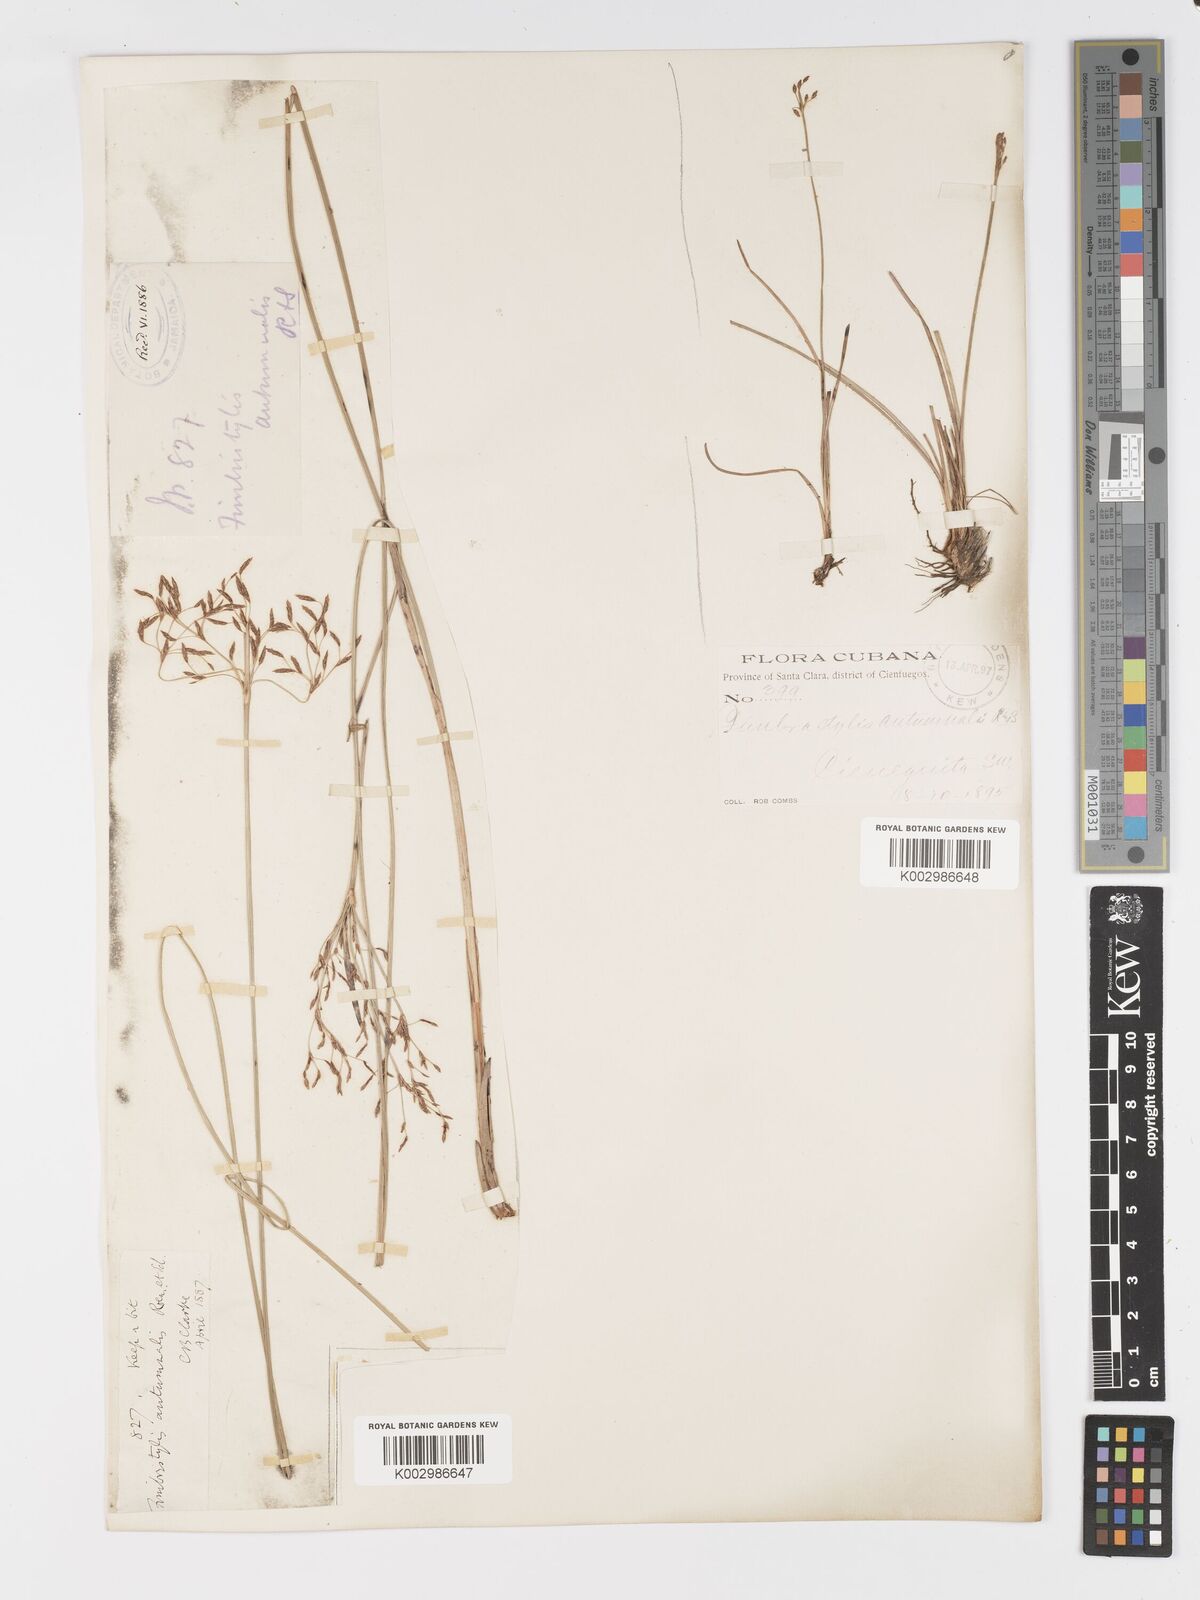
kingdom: Plantae
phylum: Tracheophyta
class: Liliopsida
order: Poales
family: Cyperaceae
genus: Fimbristylis
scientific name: Fimbristylis autumnalis
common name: Slender fimbristylis
